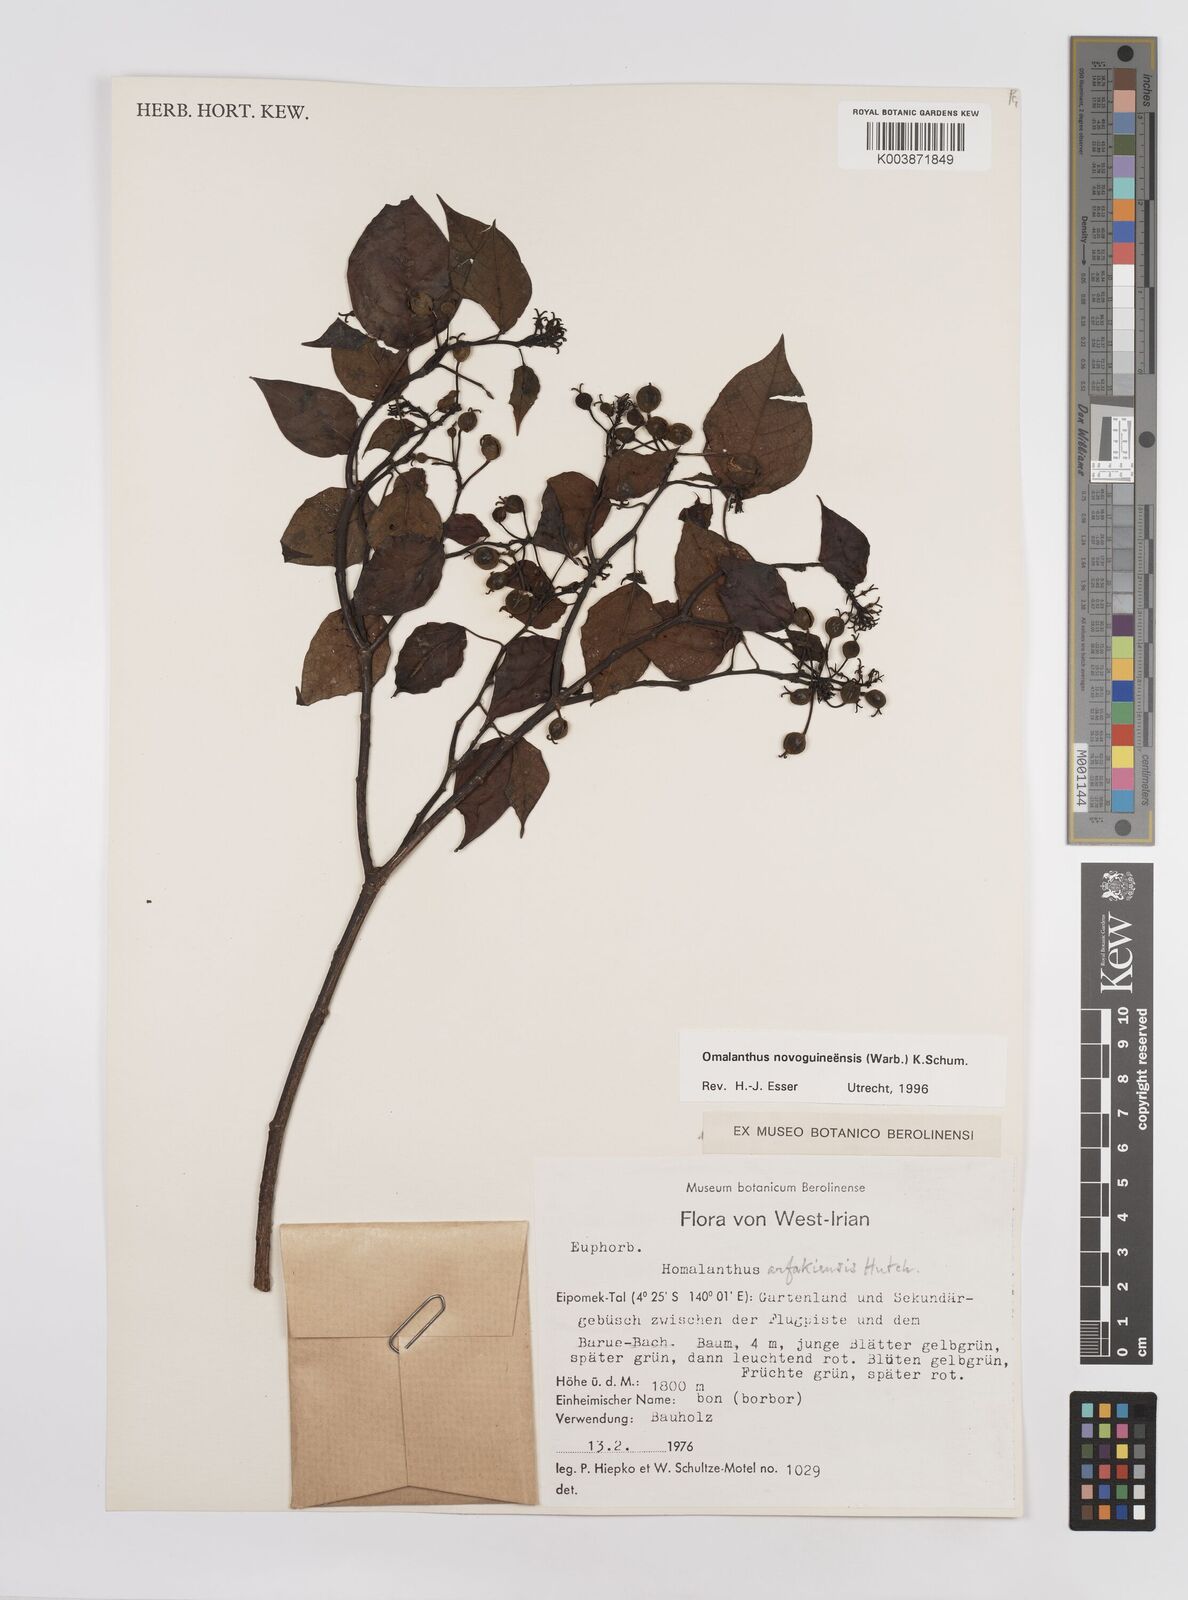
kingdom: Plantae
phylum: Tracheophyta
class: Magnoliopsida
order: Malpighiales
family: Euphorbiaceae
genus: Homalanthus
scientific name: Homalanthus novoguineensis
